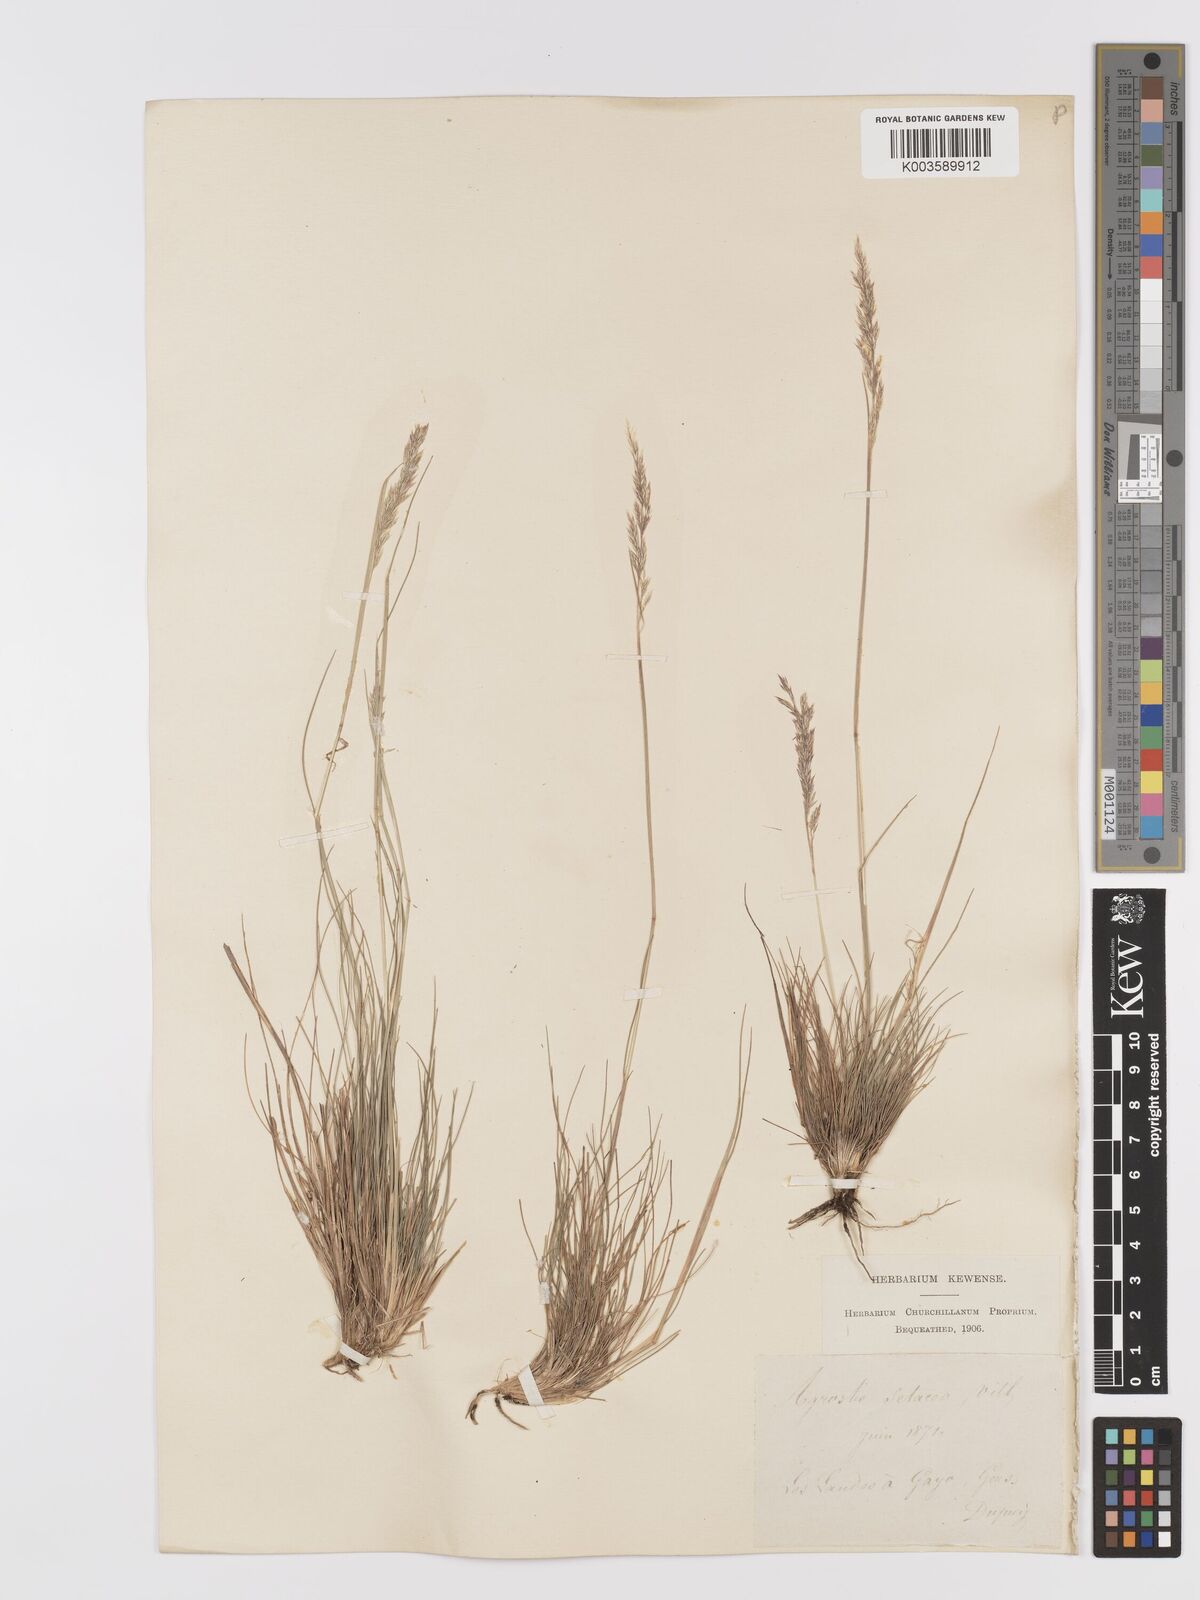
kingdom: Plantae
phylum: Tracheophyta
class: Liliopsida
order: Poales
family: Poaceae
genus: Alpagrostis
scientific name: Alpagrostis setacea
